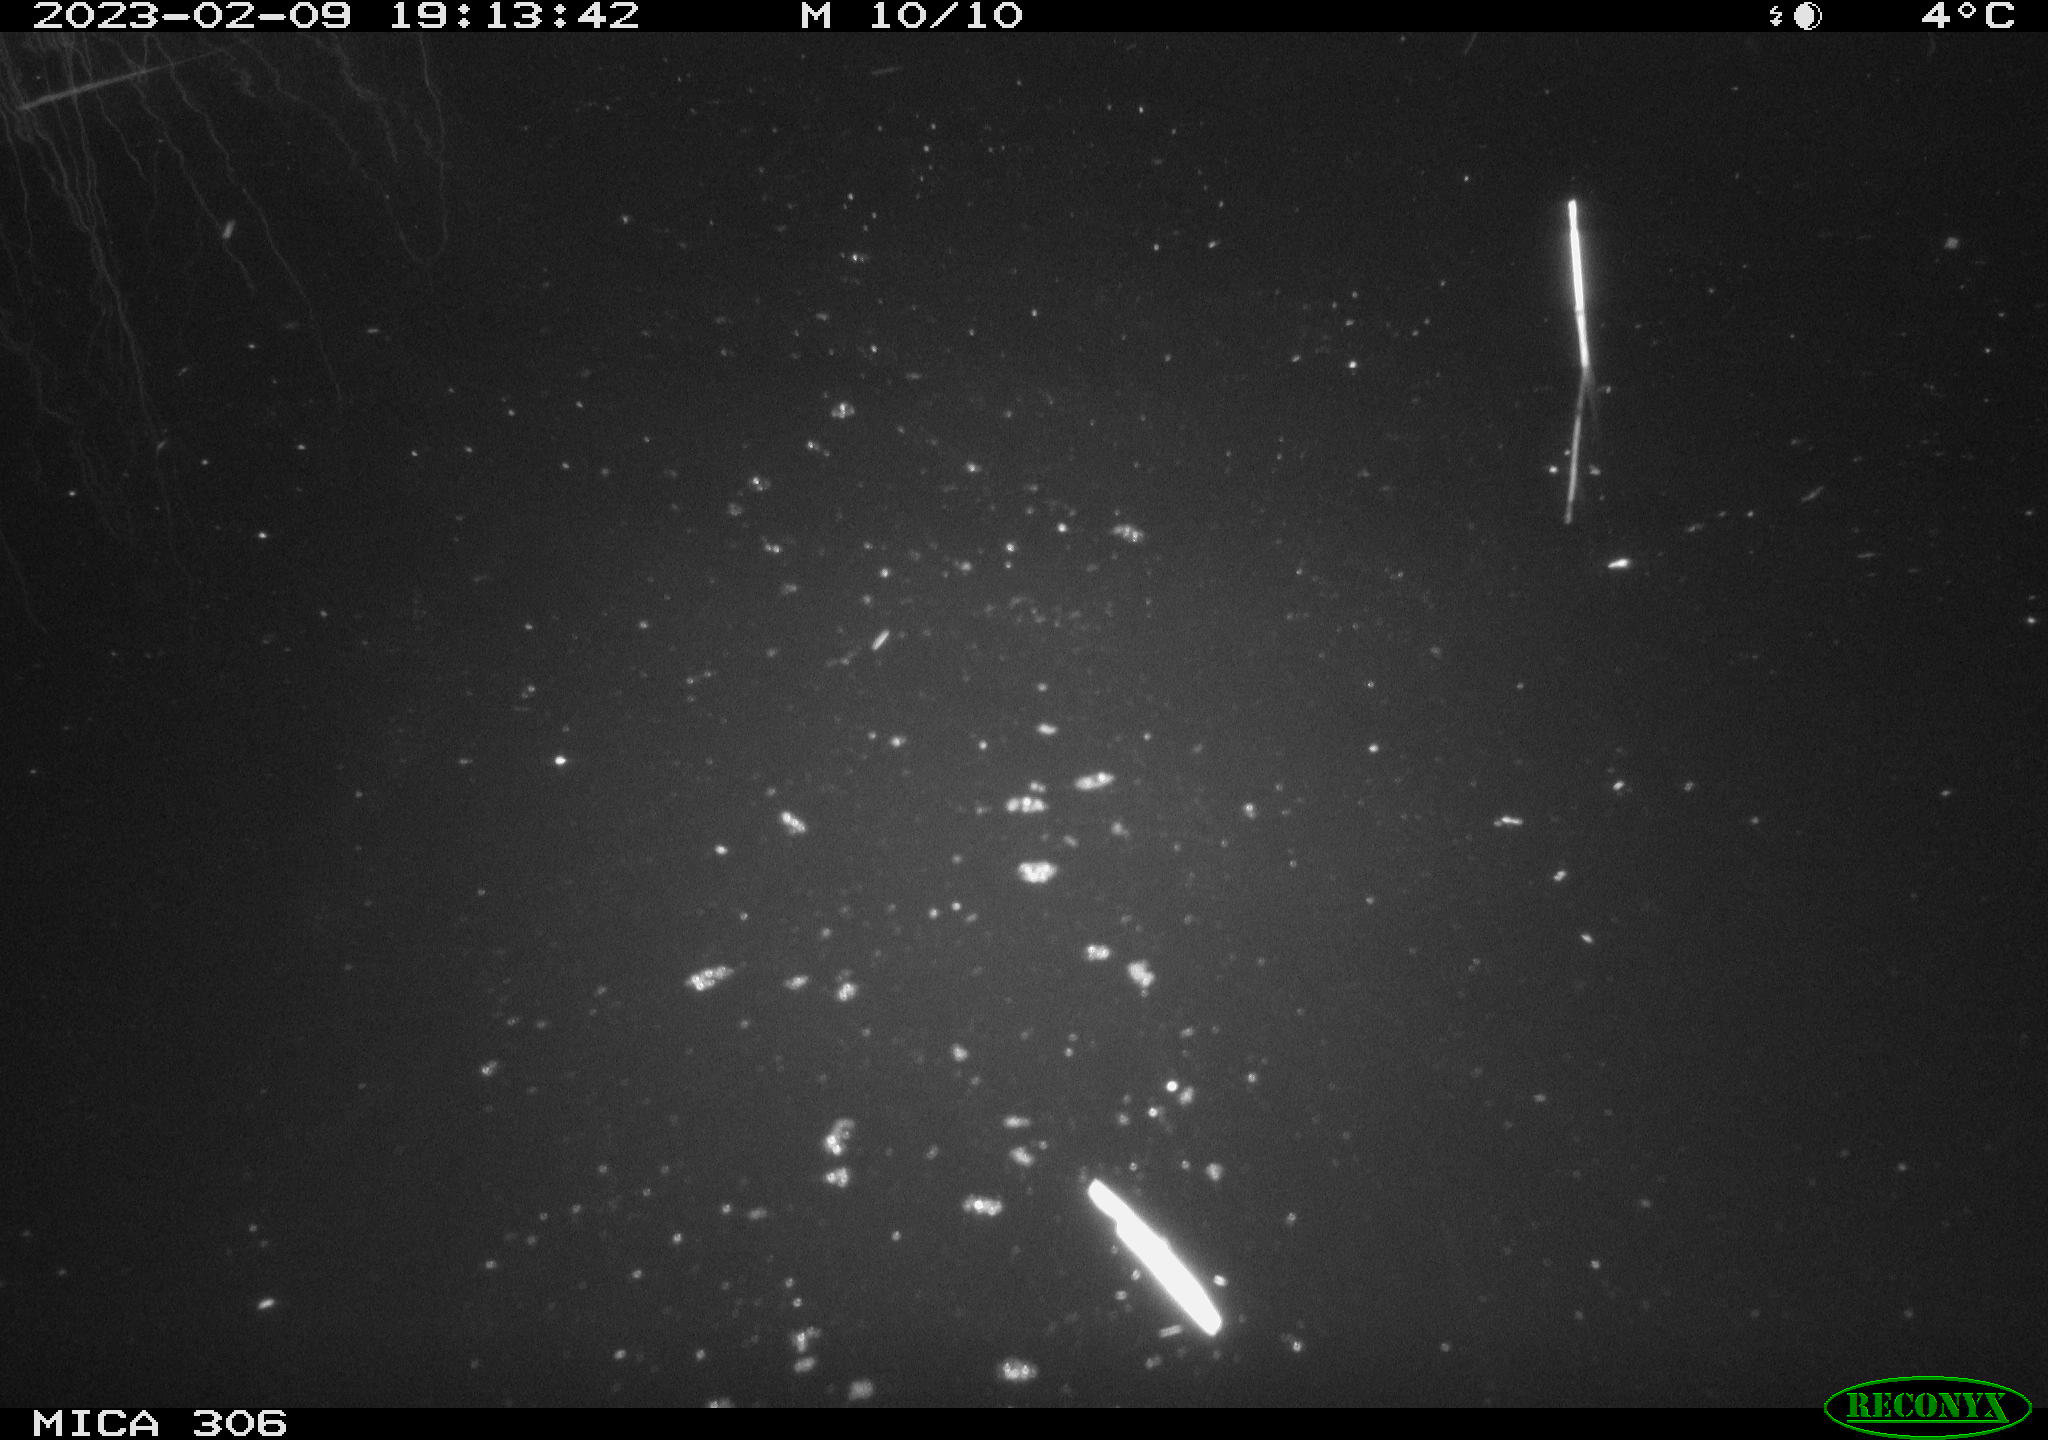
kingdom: Animalia
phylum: Chordata
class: Mammalia
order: Rodentia
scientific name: Rodentia
